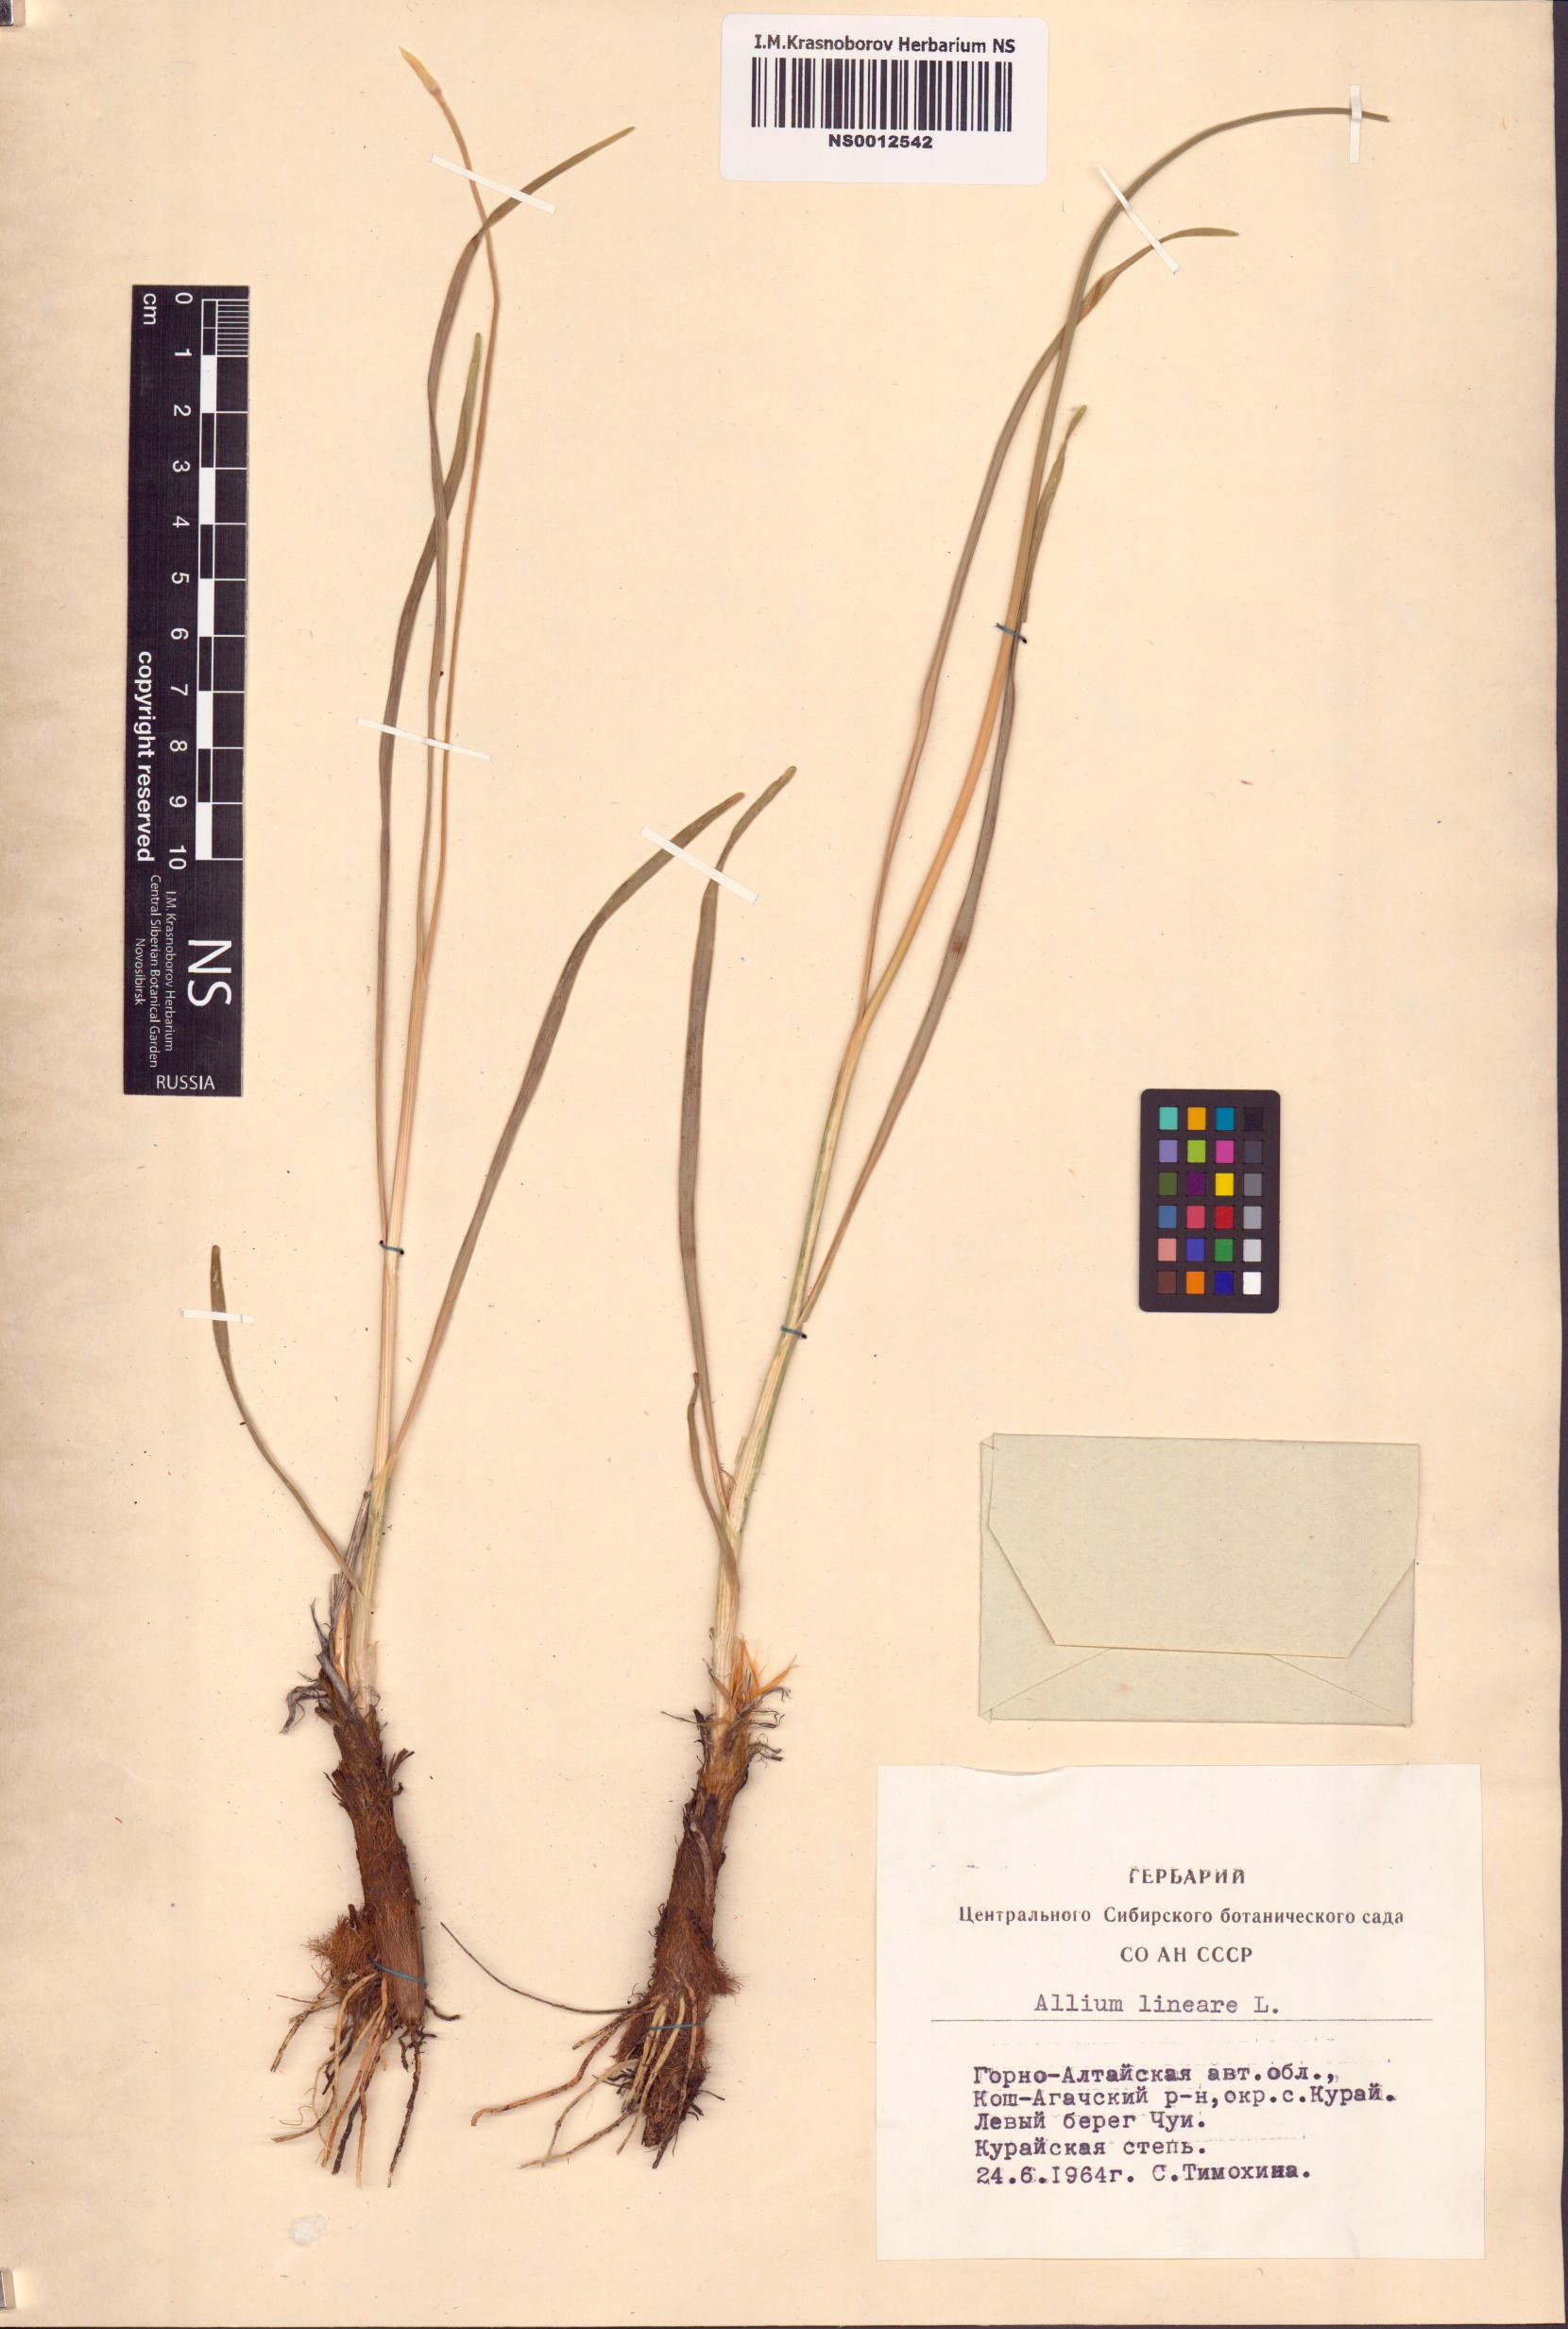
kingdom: Plantae
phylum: Tracheophyta
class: Liliopsida
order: Asparagales
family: Amaryllidaceae
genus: Allium
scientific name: Allium lineare
